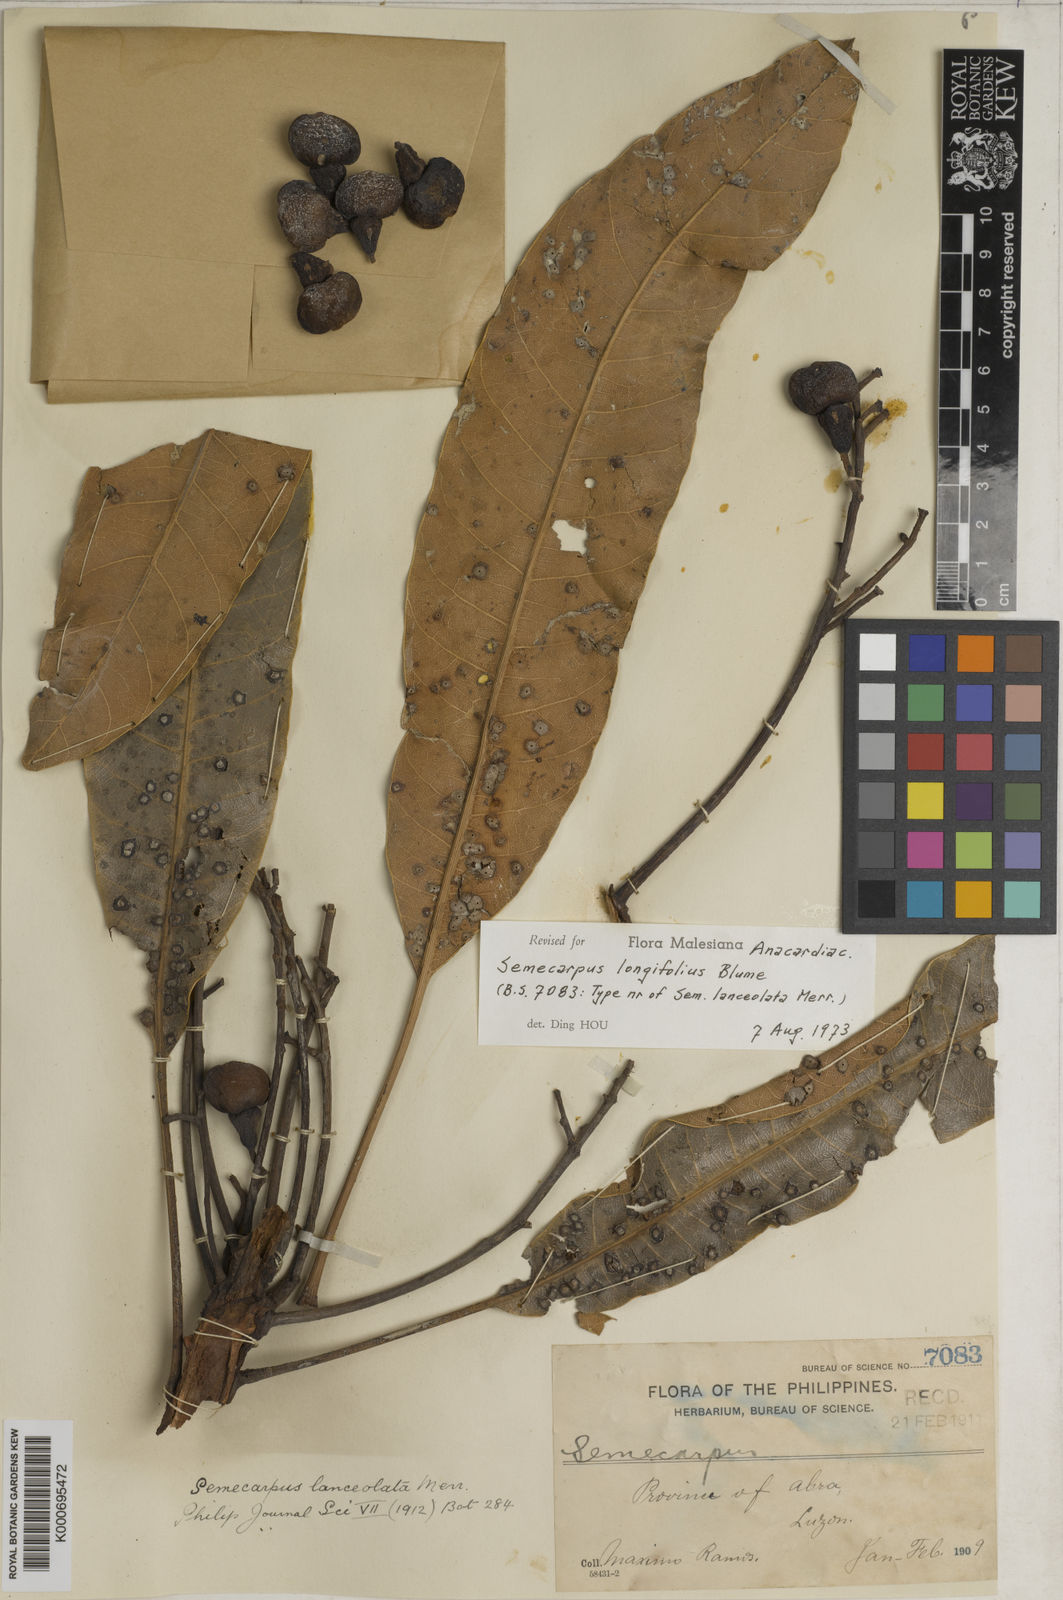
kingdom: Plantae
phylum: Tracheophyta
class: Magnoliopsida
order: Sapindales
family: Anacardiaceae
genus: Semecarpus
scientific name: Semecarpus longifolius
